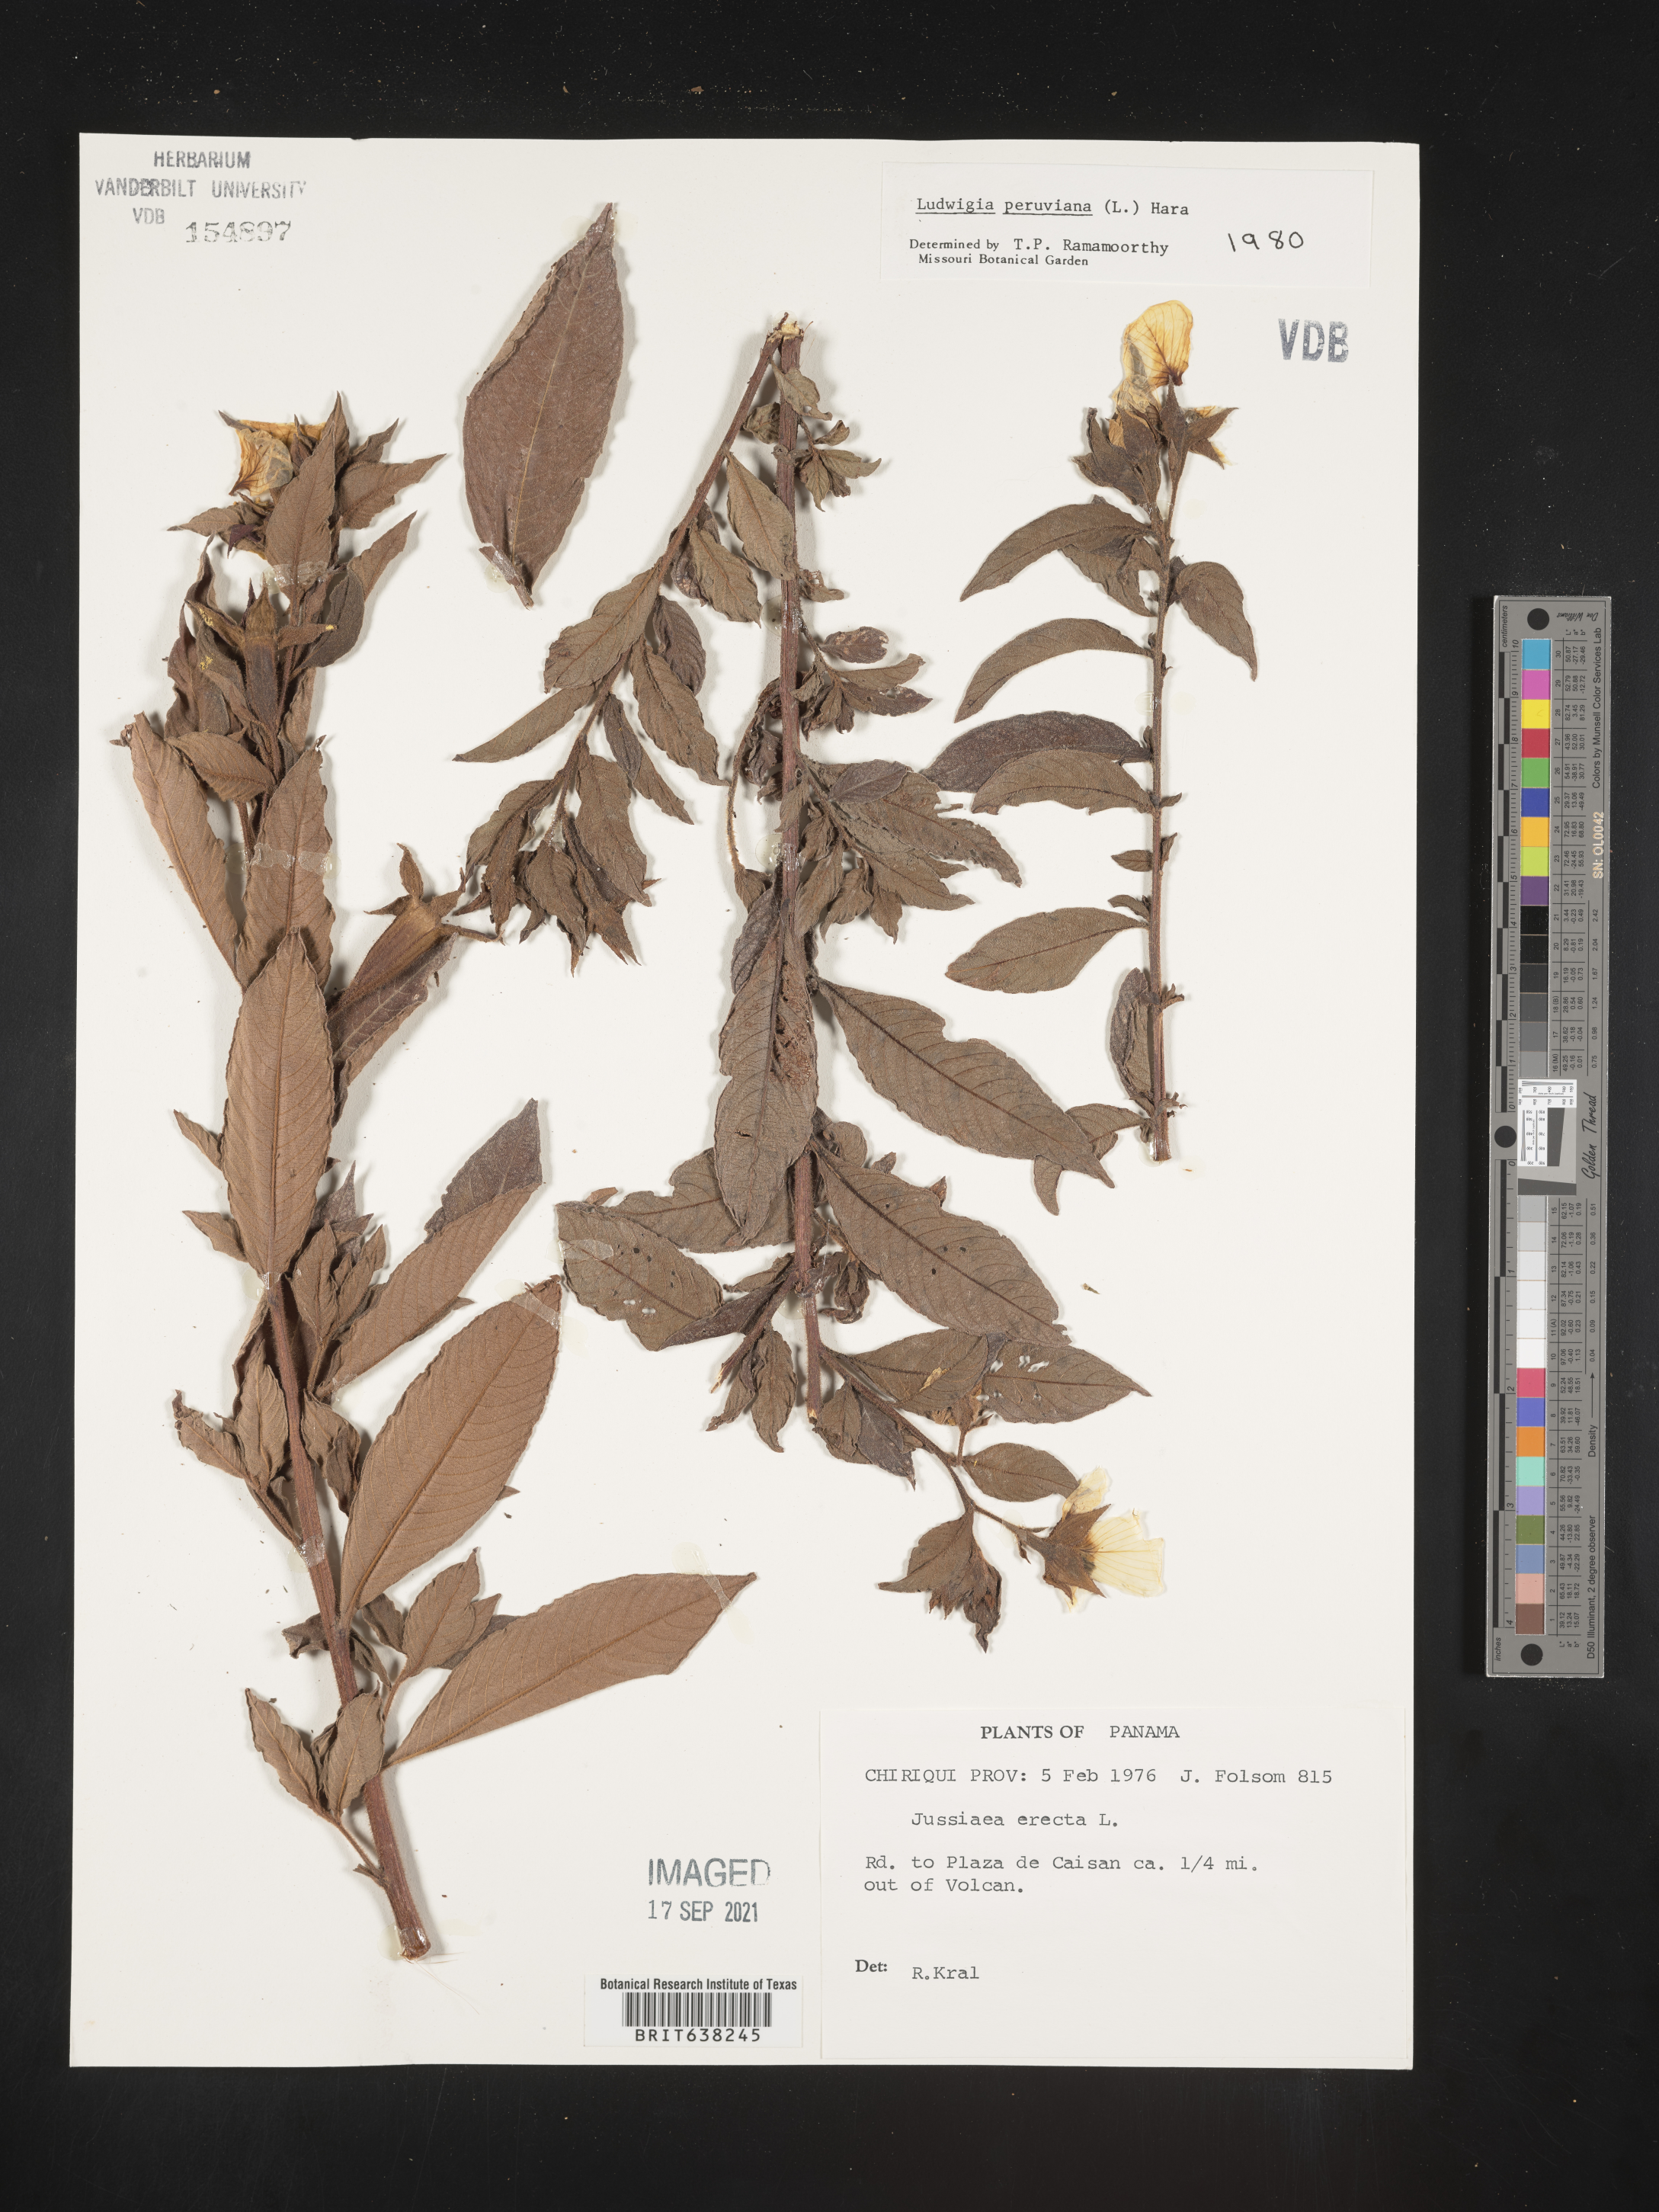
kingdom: Plantae
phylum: Tracheophyta
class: Magnoliopsida
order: Myrtales
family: Onagraceae
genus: Ludwigia
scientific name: Ludwigia
